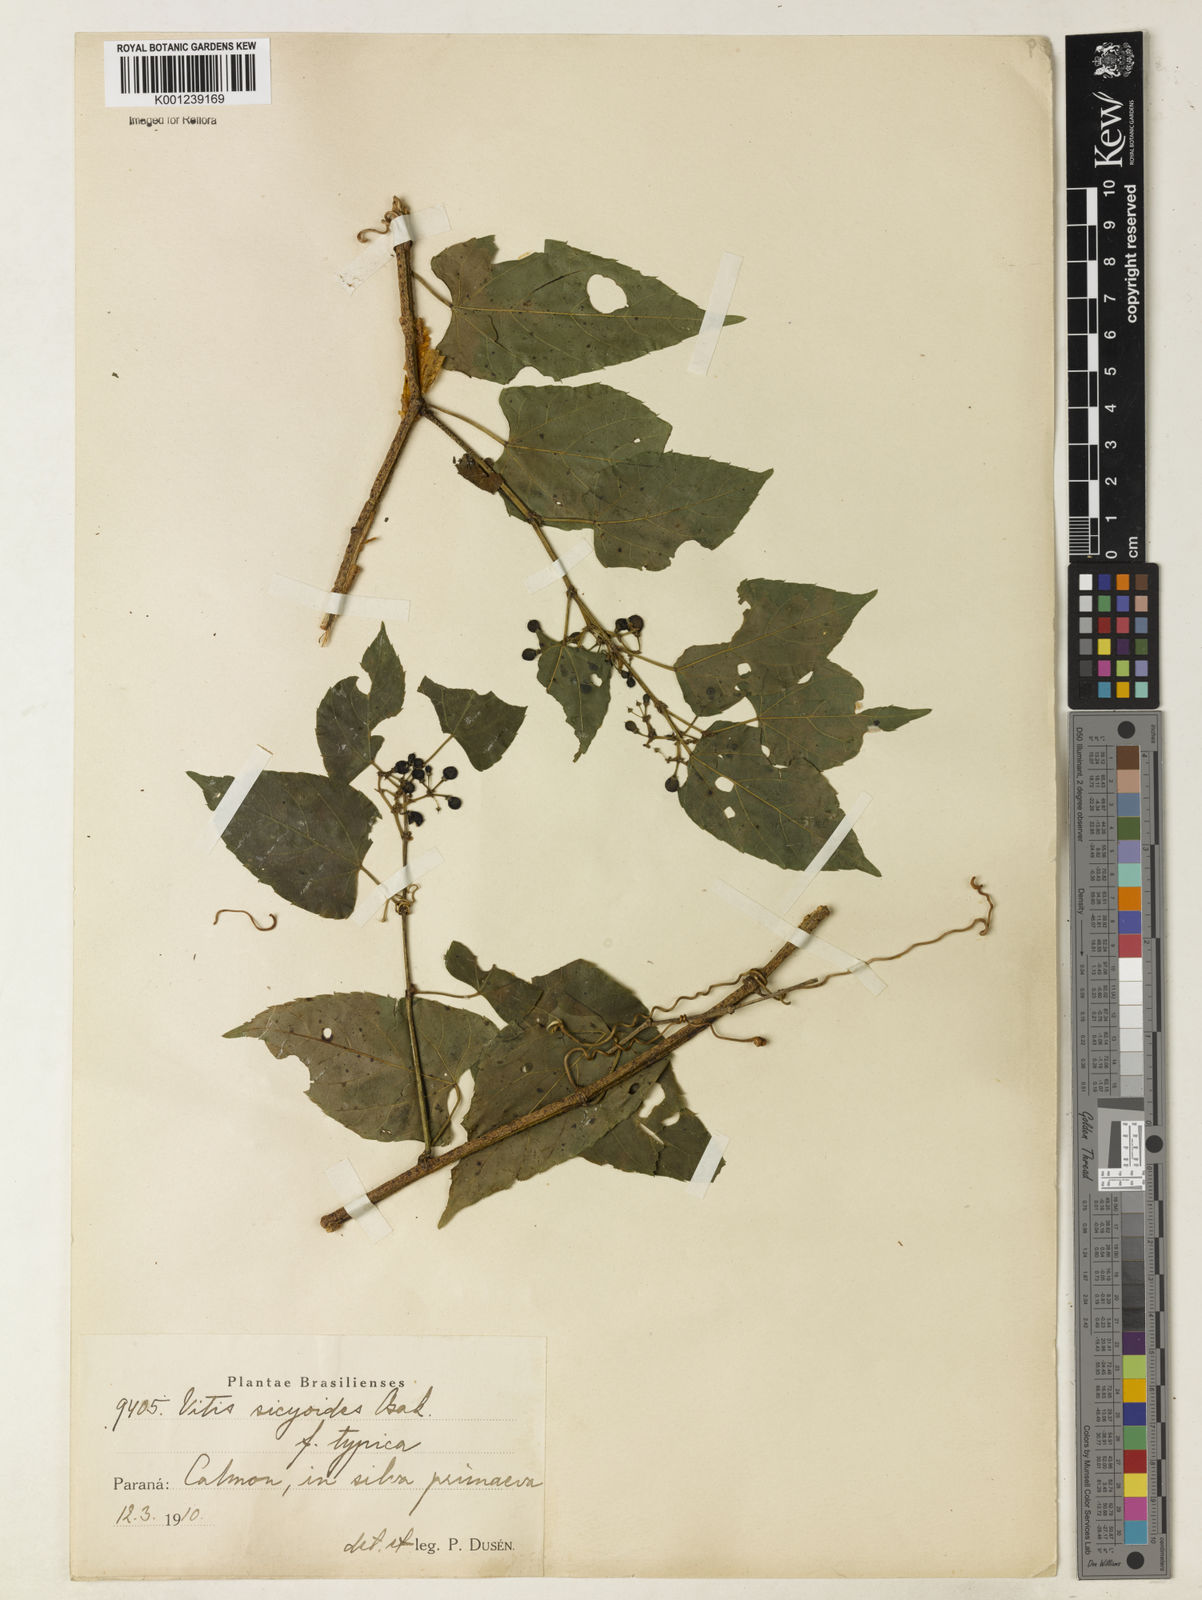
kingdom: Plantae
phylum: Tracheophyta
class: Magnoliopsida
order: Vitales
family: Vitaceae
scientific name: Vitaceae
